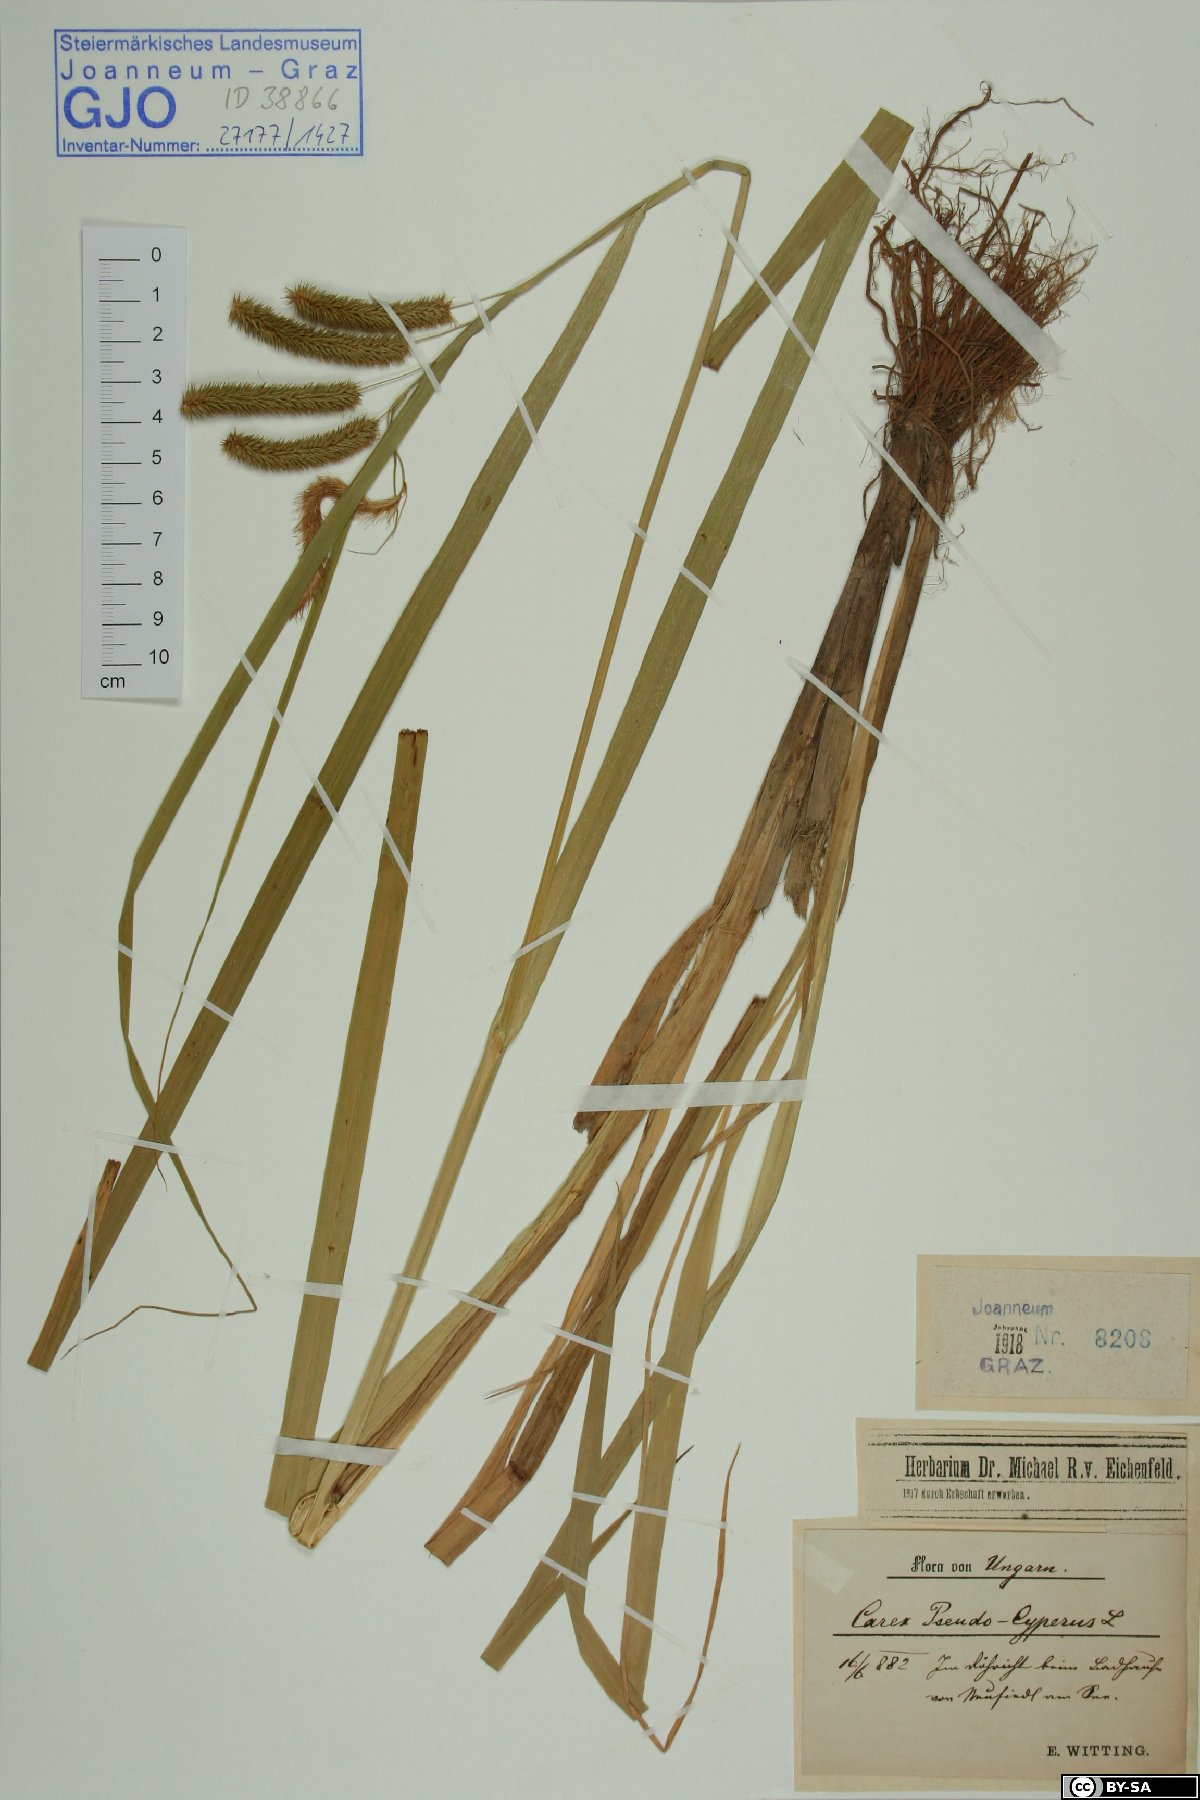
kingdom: Plantae
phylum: Tracheophyta
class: Liliopsida
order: Poales
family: Cyperaceae
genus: Carex
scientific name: Carex pseudocyperus
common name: Cyperus sedge
